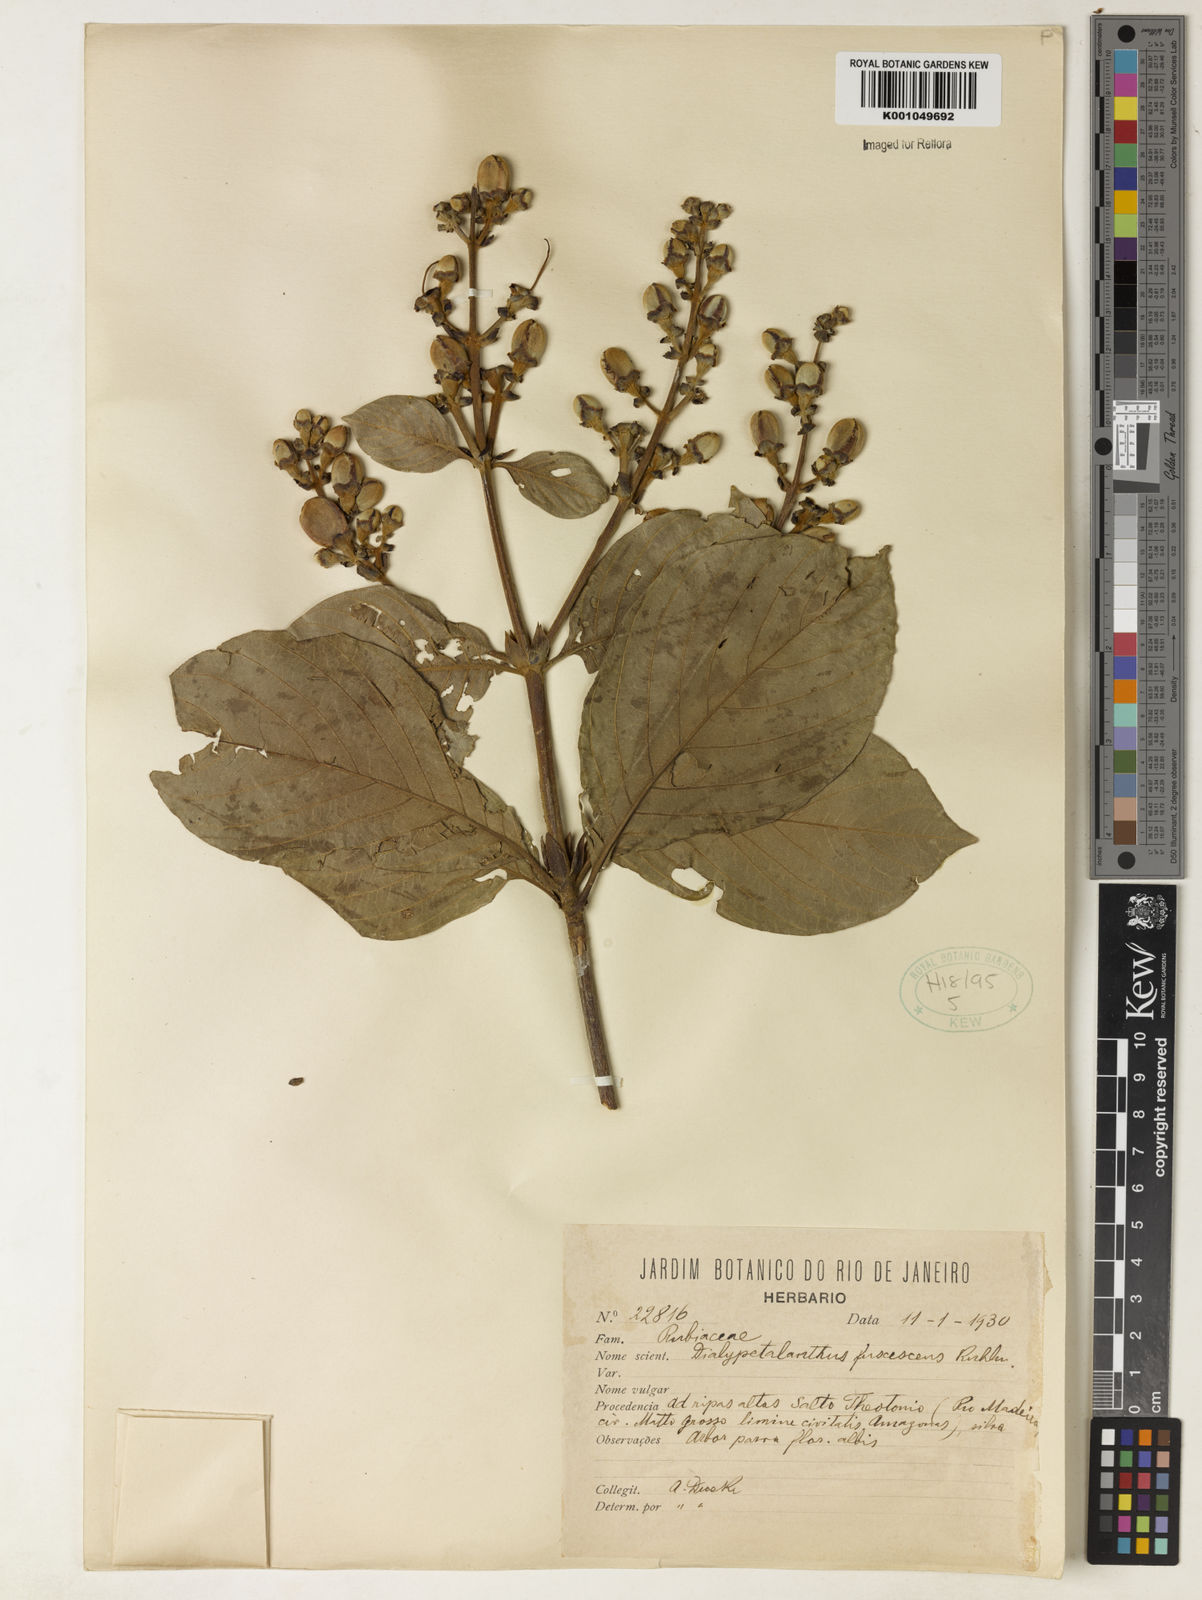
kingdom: Plantae
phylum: Tracheophyta
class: Magnoliopsida
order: Gentianales
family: Rubiaceae
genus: Dialypetalanthus
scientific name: Dialypetalanthus fuscescens
